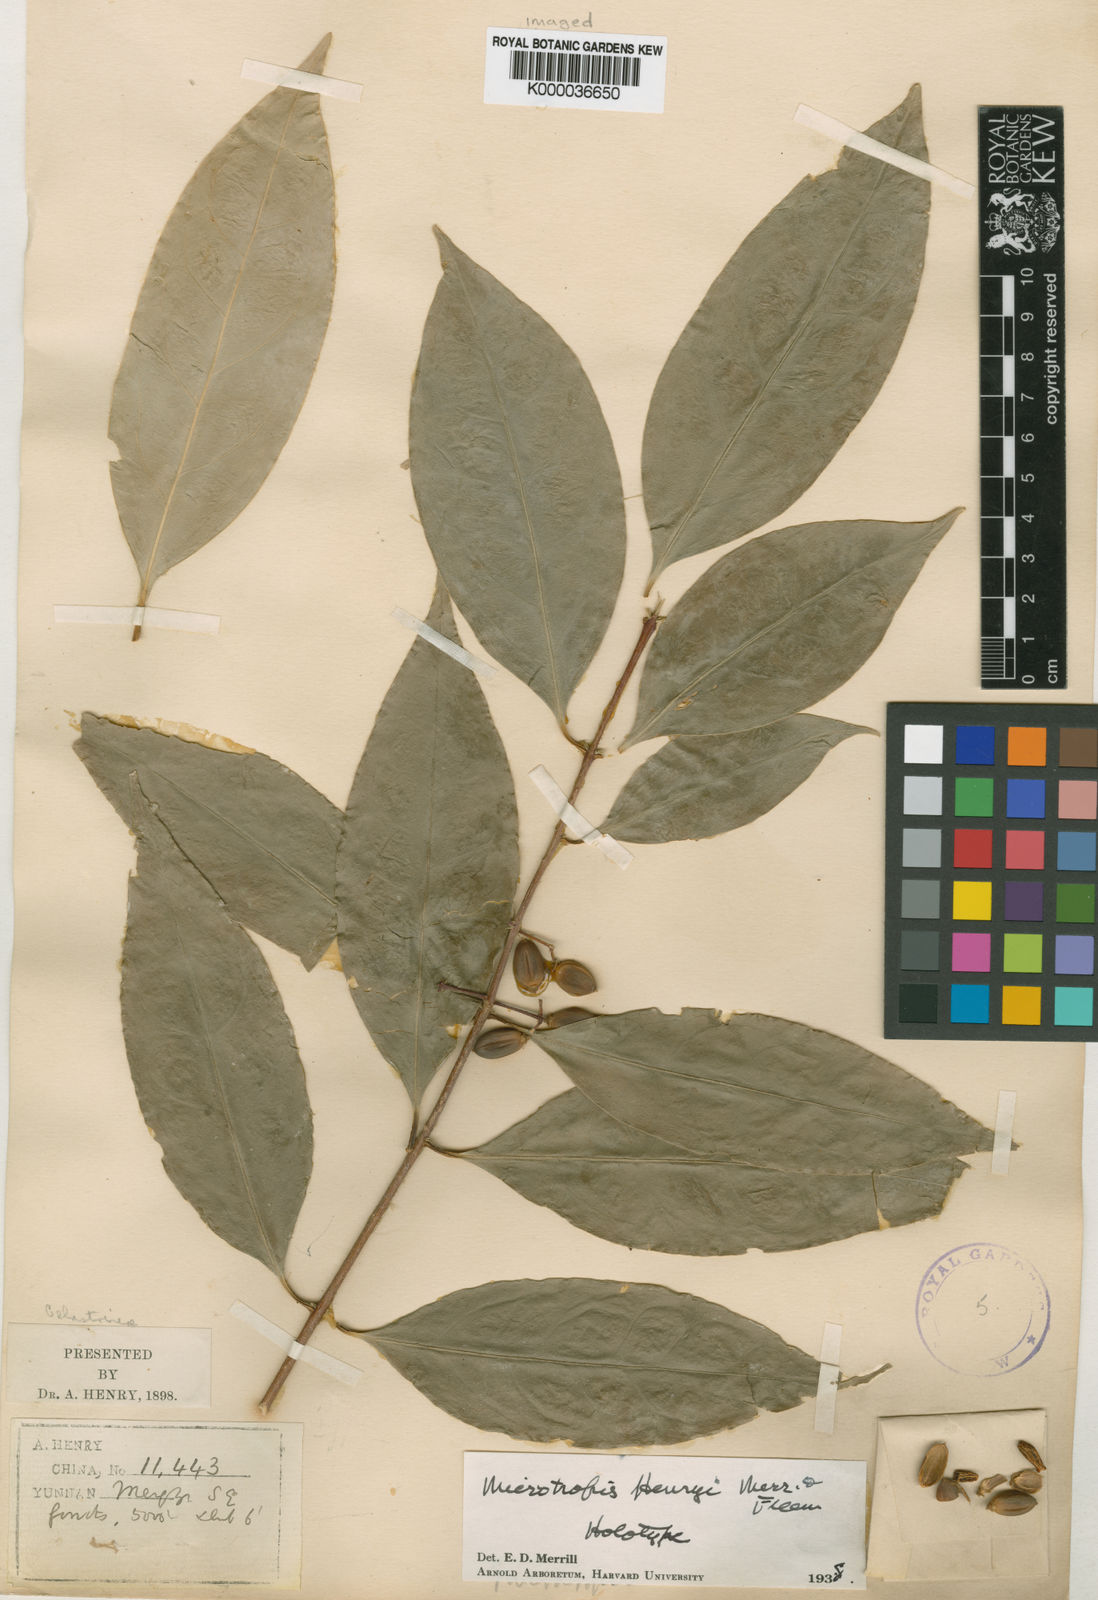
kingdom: Plantae
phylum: Tracheophyta
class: Magnoliopsida
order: Celastrales
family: Celastraceae
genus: Microtropis
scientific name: Microtropis henryi
